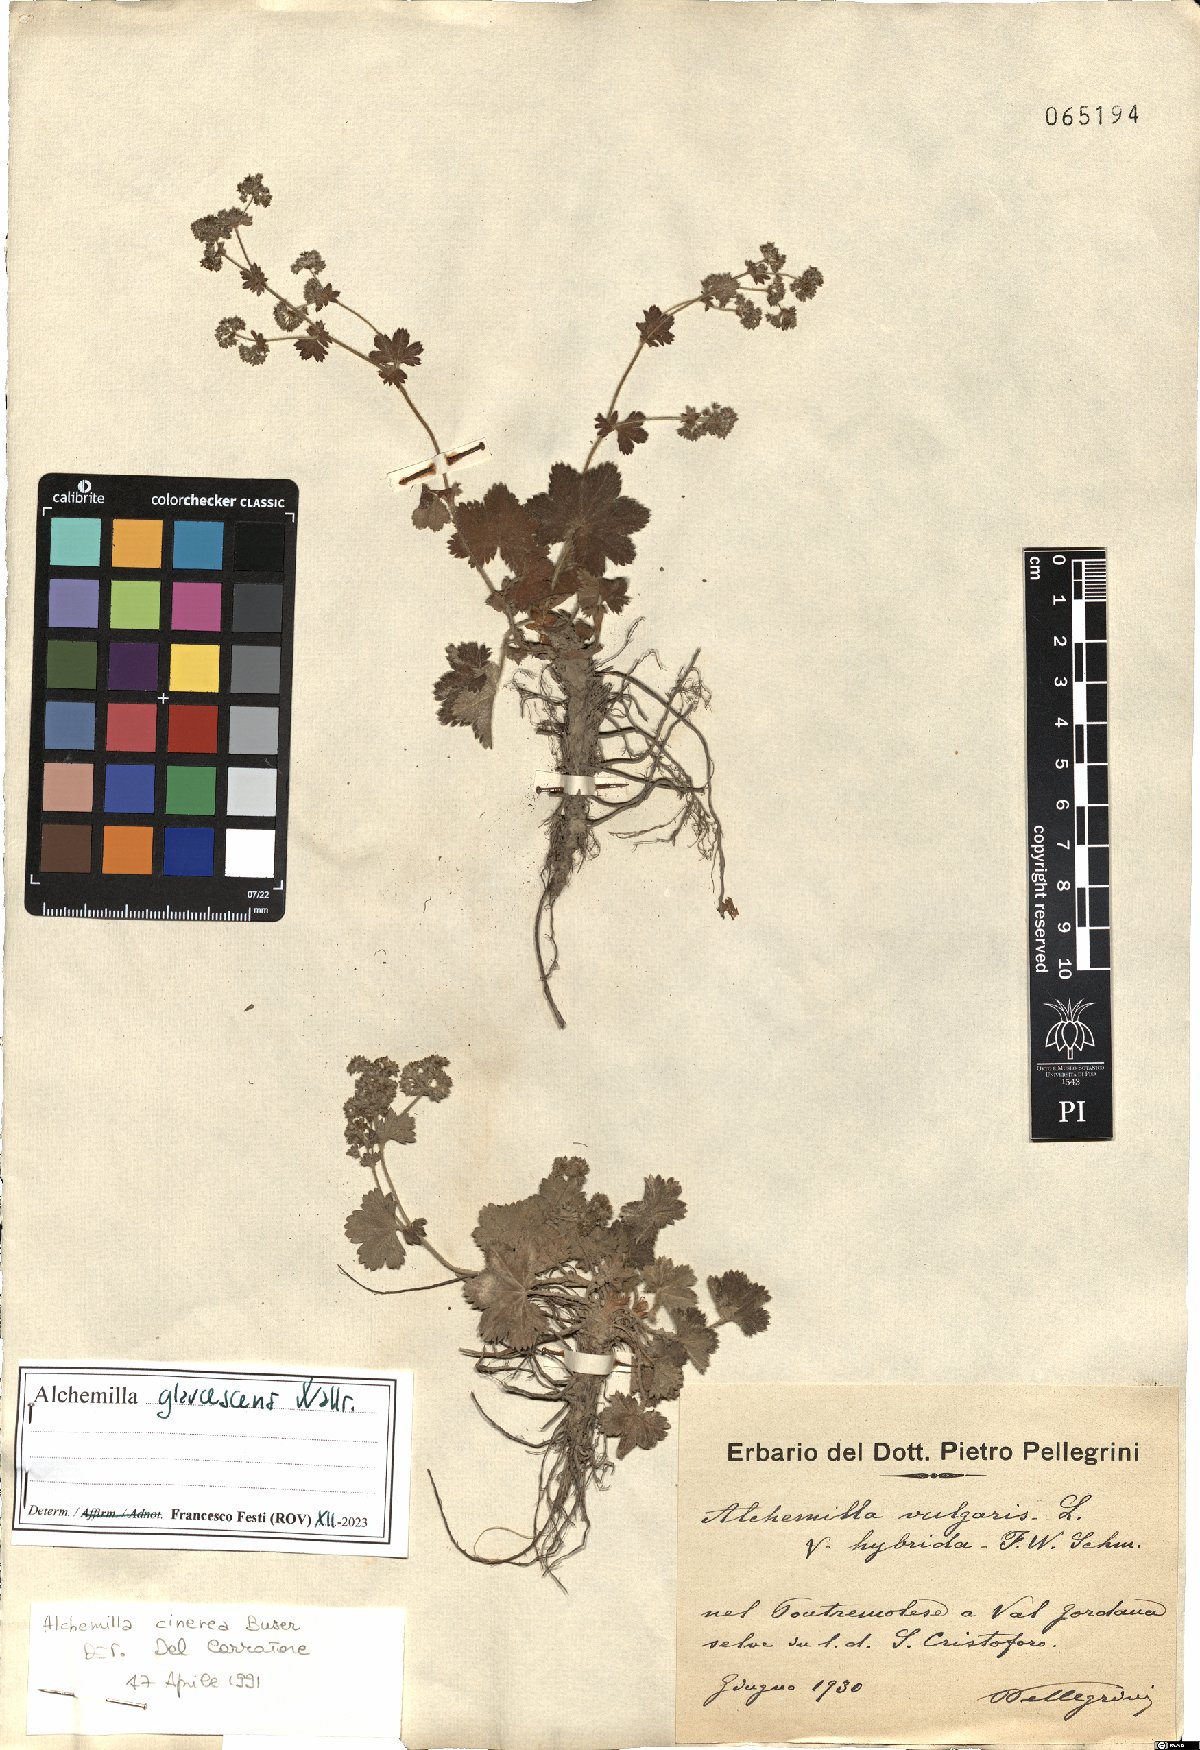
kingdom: Plantae
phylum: Tracheophyta
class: Magnoliopsida
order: Rosales
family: Rosaceae
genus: Alchemilla
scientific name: Alchemilla glaucescens
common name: Silky lady's mantle
